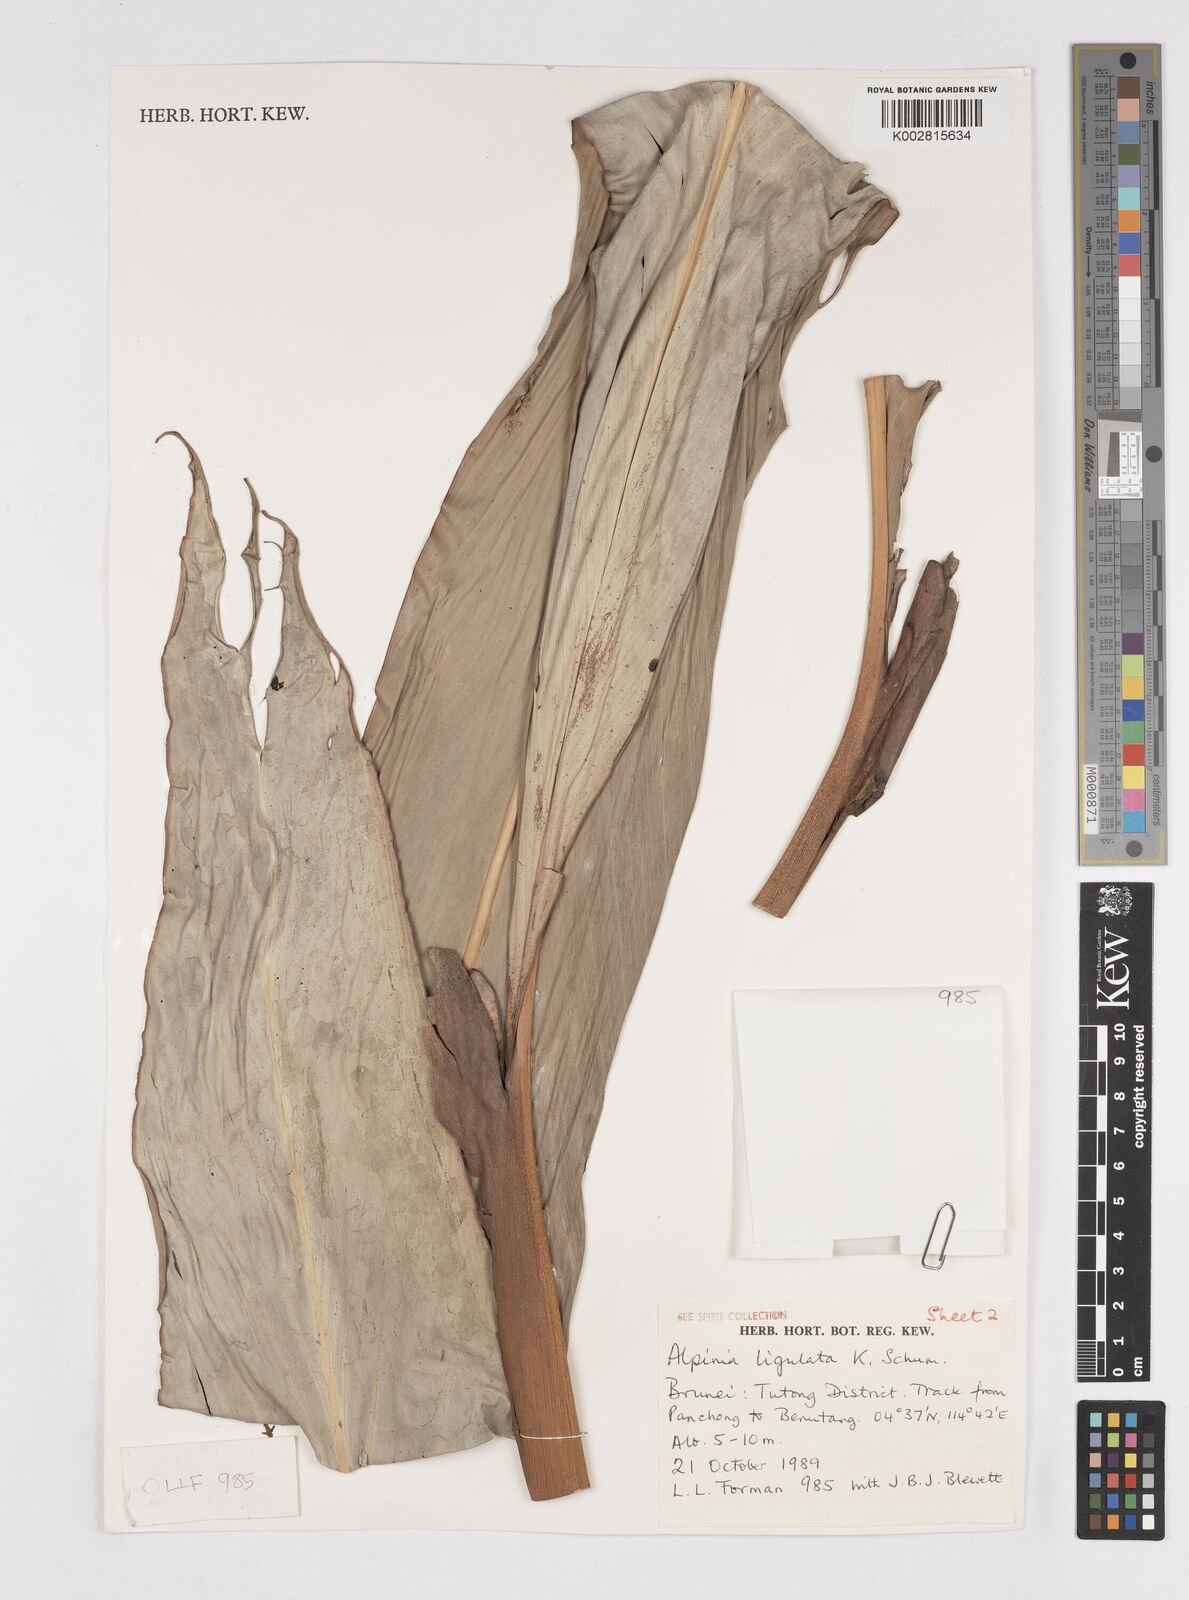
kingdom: Plantae
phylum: Tracheophyta
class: Liliopsida
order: Zingiberales
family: Zingiberaceae
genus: Alpinia
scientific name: Alpinia ligulata
